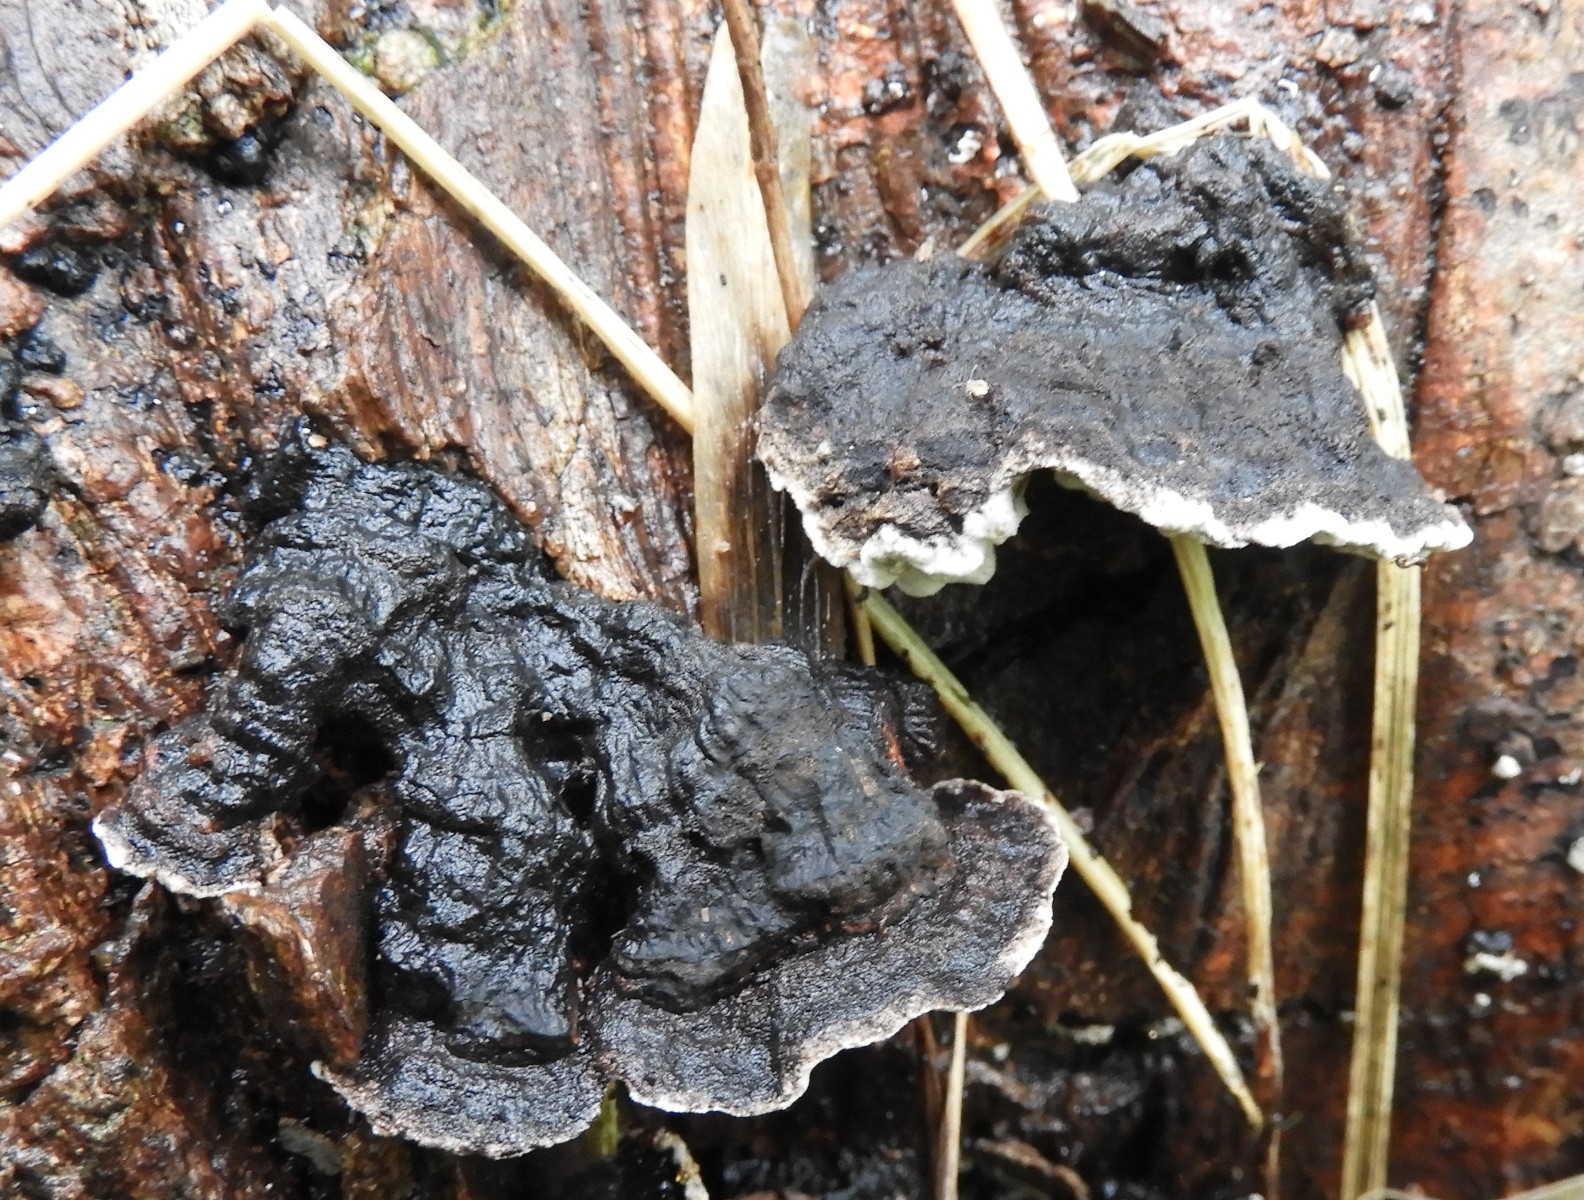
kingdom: Fungi
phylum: Basidiomycota
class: Agaricomycetes
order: Polyporales
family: Polyporaceae
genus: Podofomes
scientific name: Podofomes mollis
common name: blød begporesvamp
